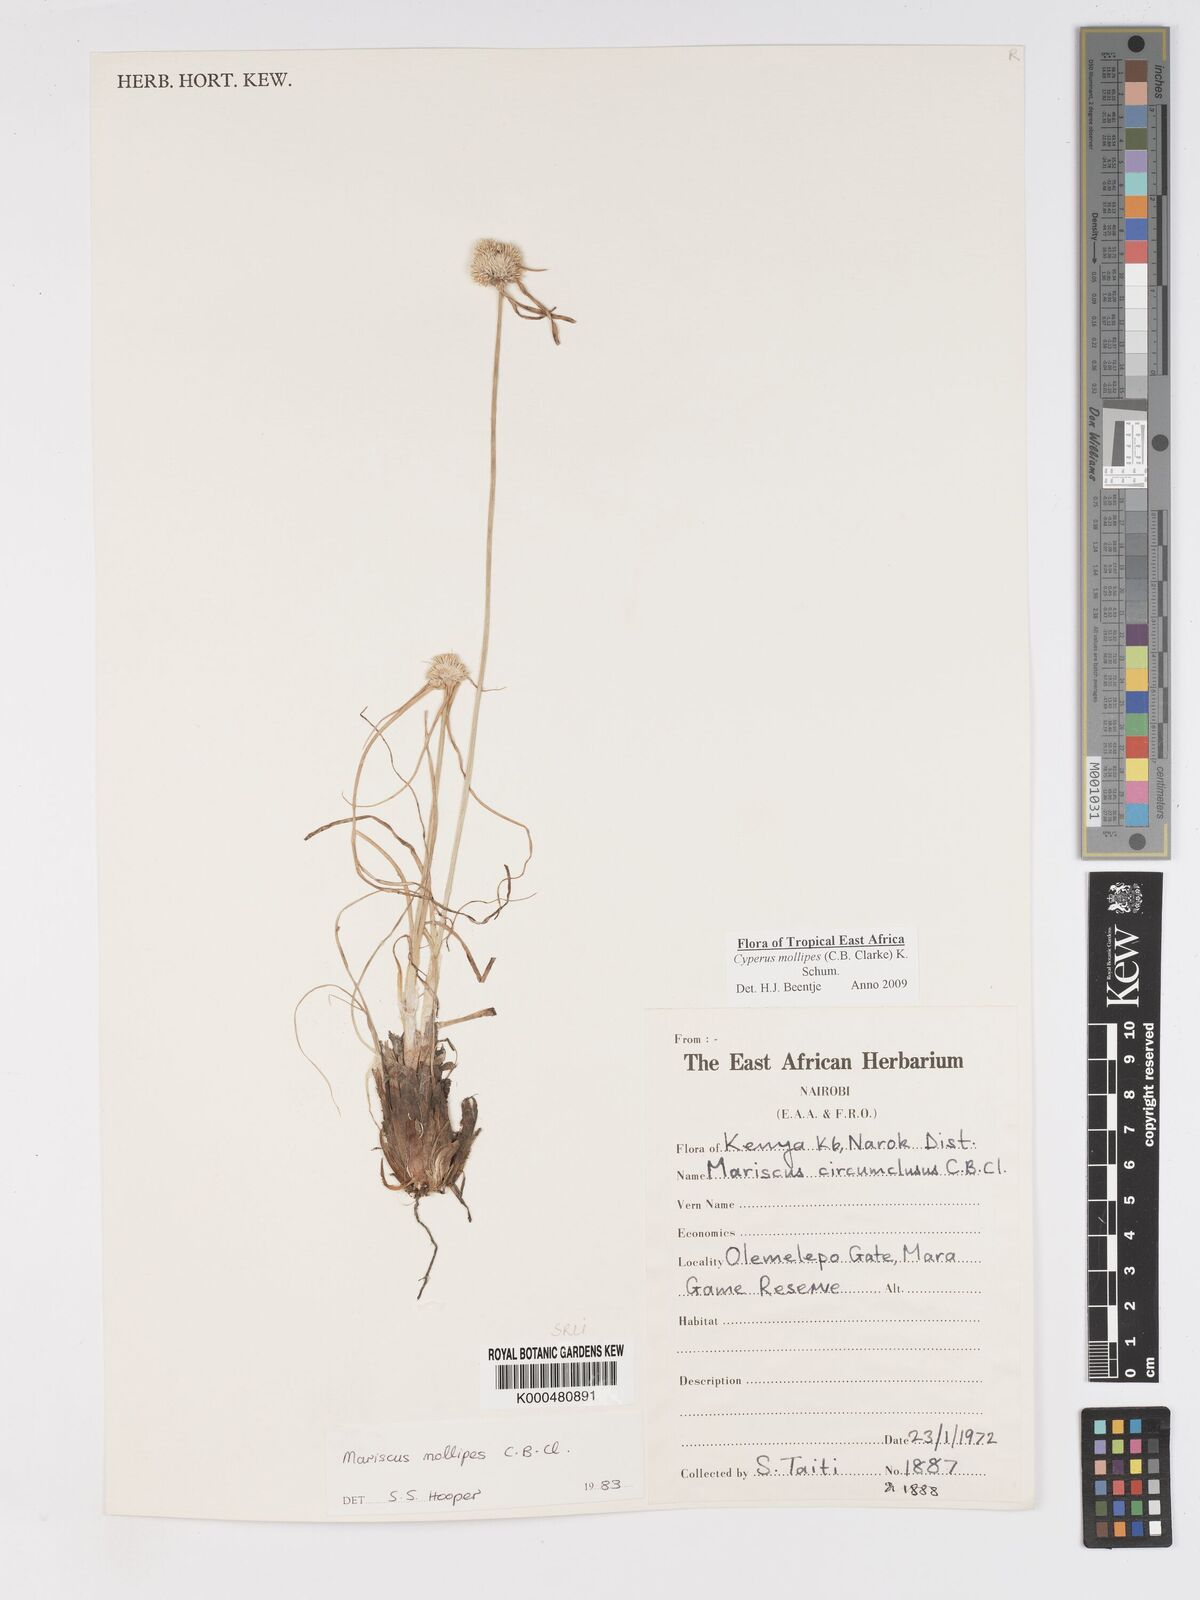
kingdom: Plantae
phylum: Tracheophyta
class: Liliopsida
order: Poales
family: Cyperaceae
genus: Cyperus
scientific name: Cyperus mollipes
